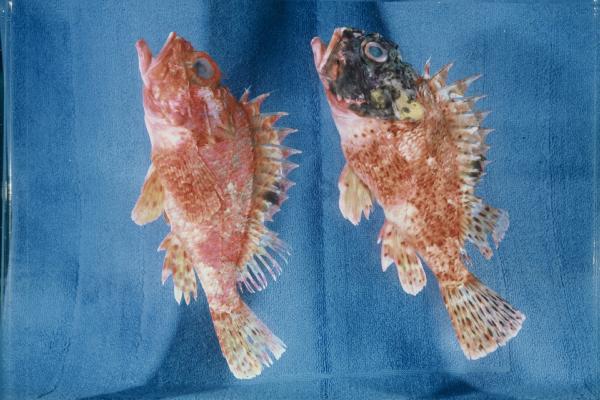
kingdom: Animalia
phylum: Chordata
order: Scorpaeniformes
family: Scorpaenidae
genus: Scorpaena
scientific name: Scorpaena notata
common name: Small red scorpionfish
